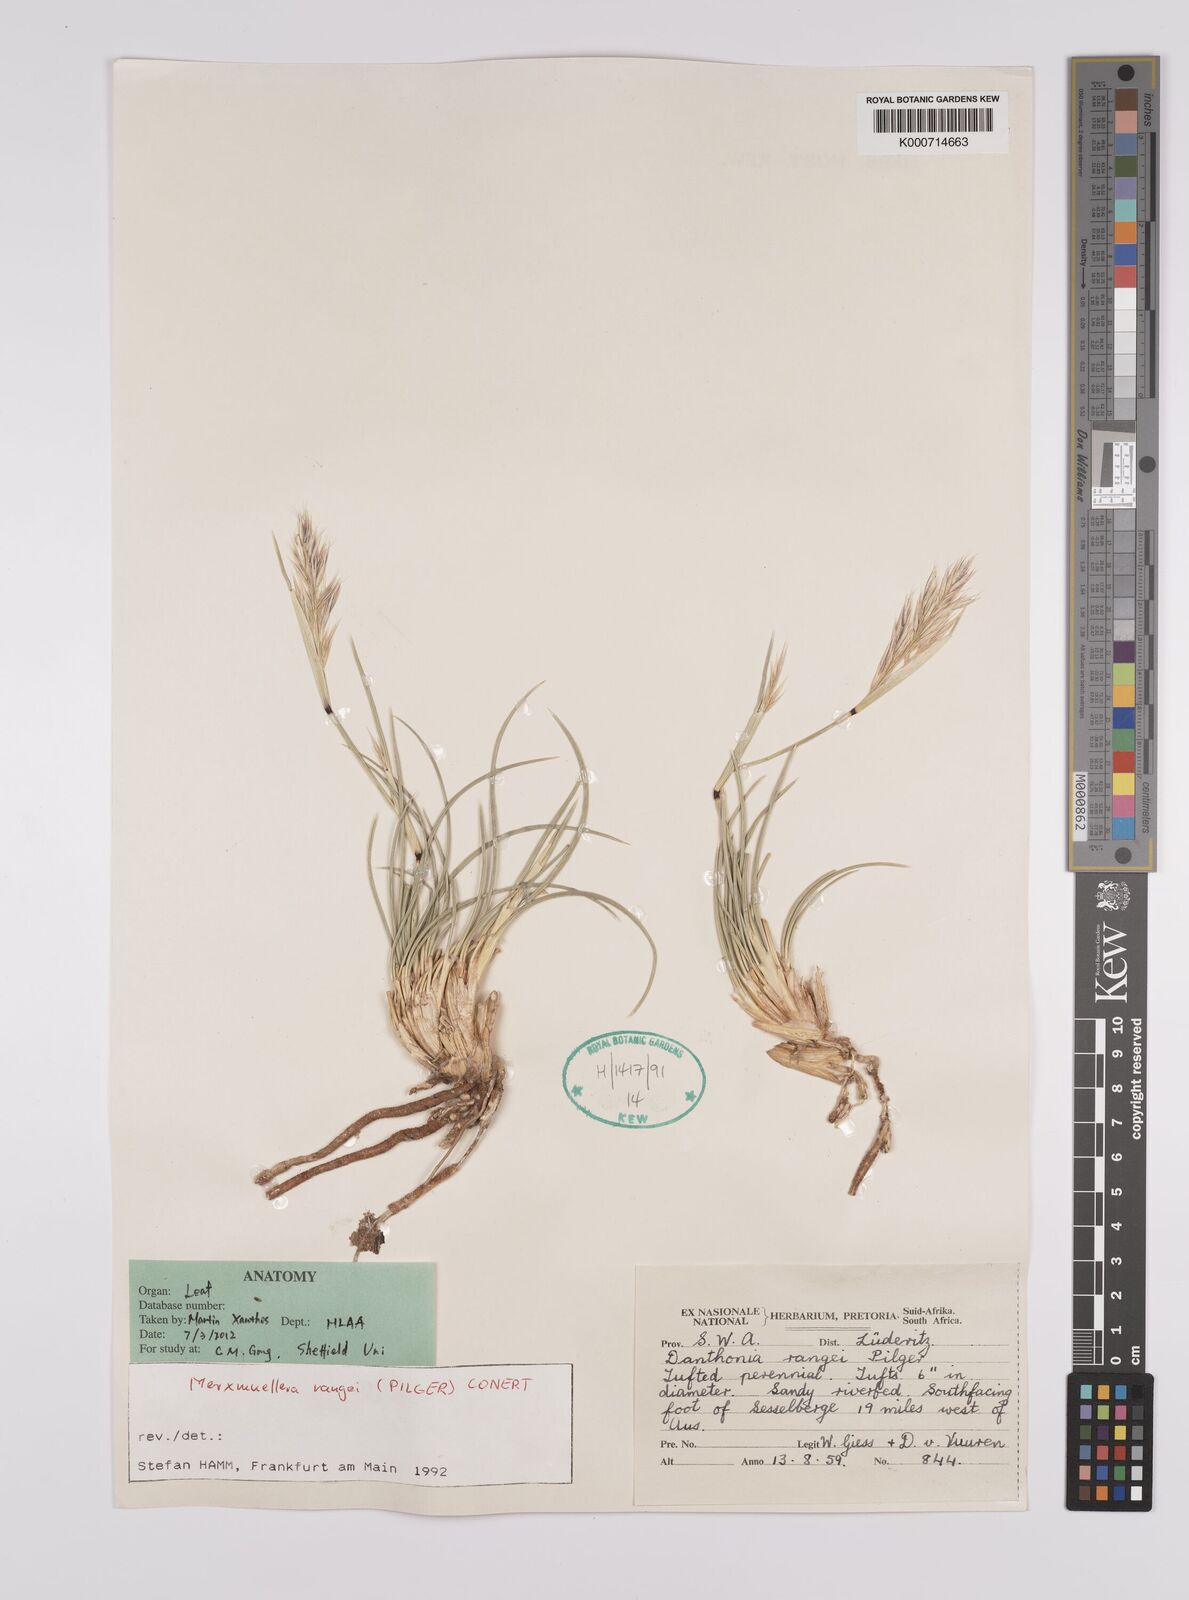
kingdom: Plantae
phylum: Tracheophyta
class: Liliopsida
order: Poales
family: Poaceae
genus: Rytidosperma
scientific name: Rytidosperma
